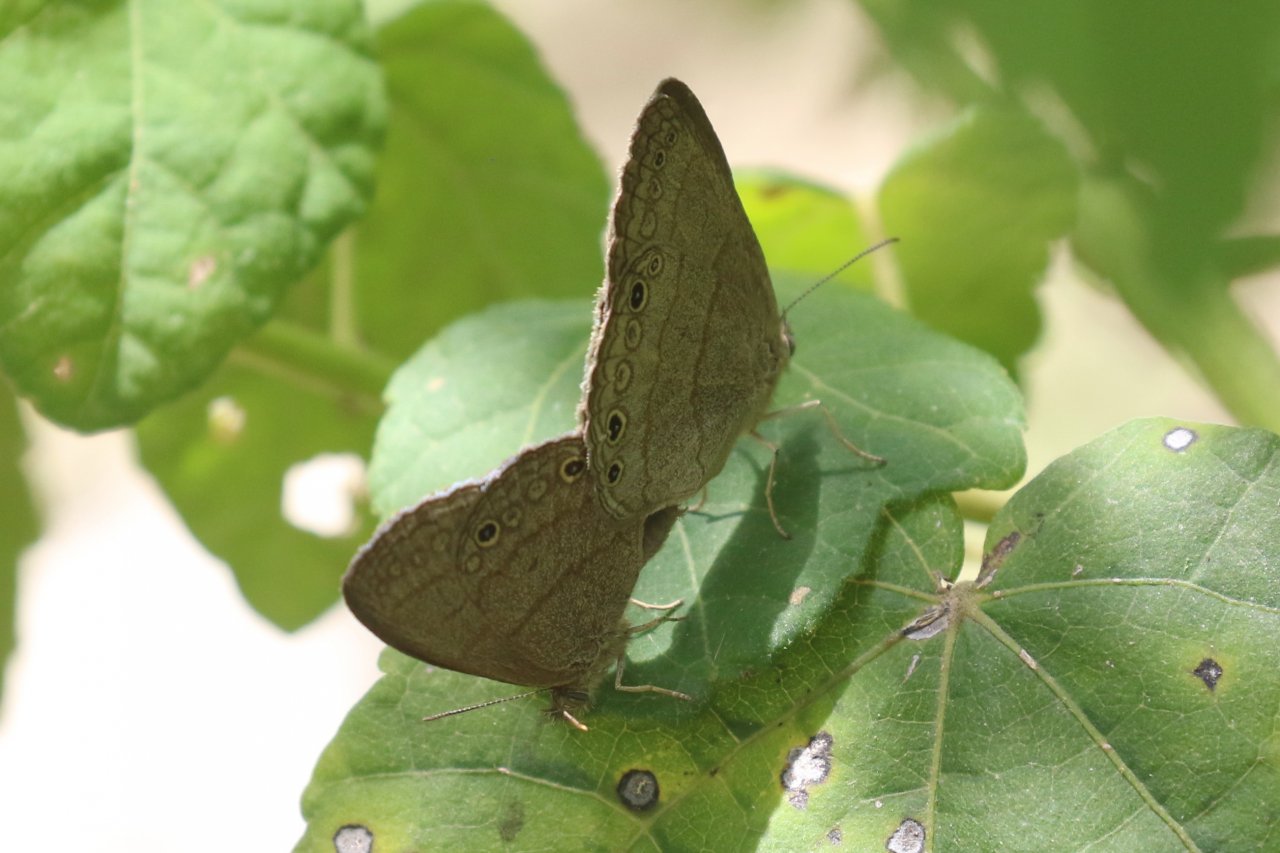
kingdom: Animalia
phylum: Arthropoda
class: Insecta
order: Lepidoptera
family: Nymphalidae
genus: Hermeuptychia
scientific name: Hermeuptychia hermybius
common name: South Texas Satyr
